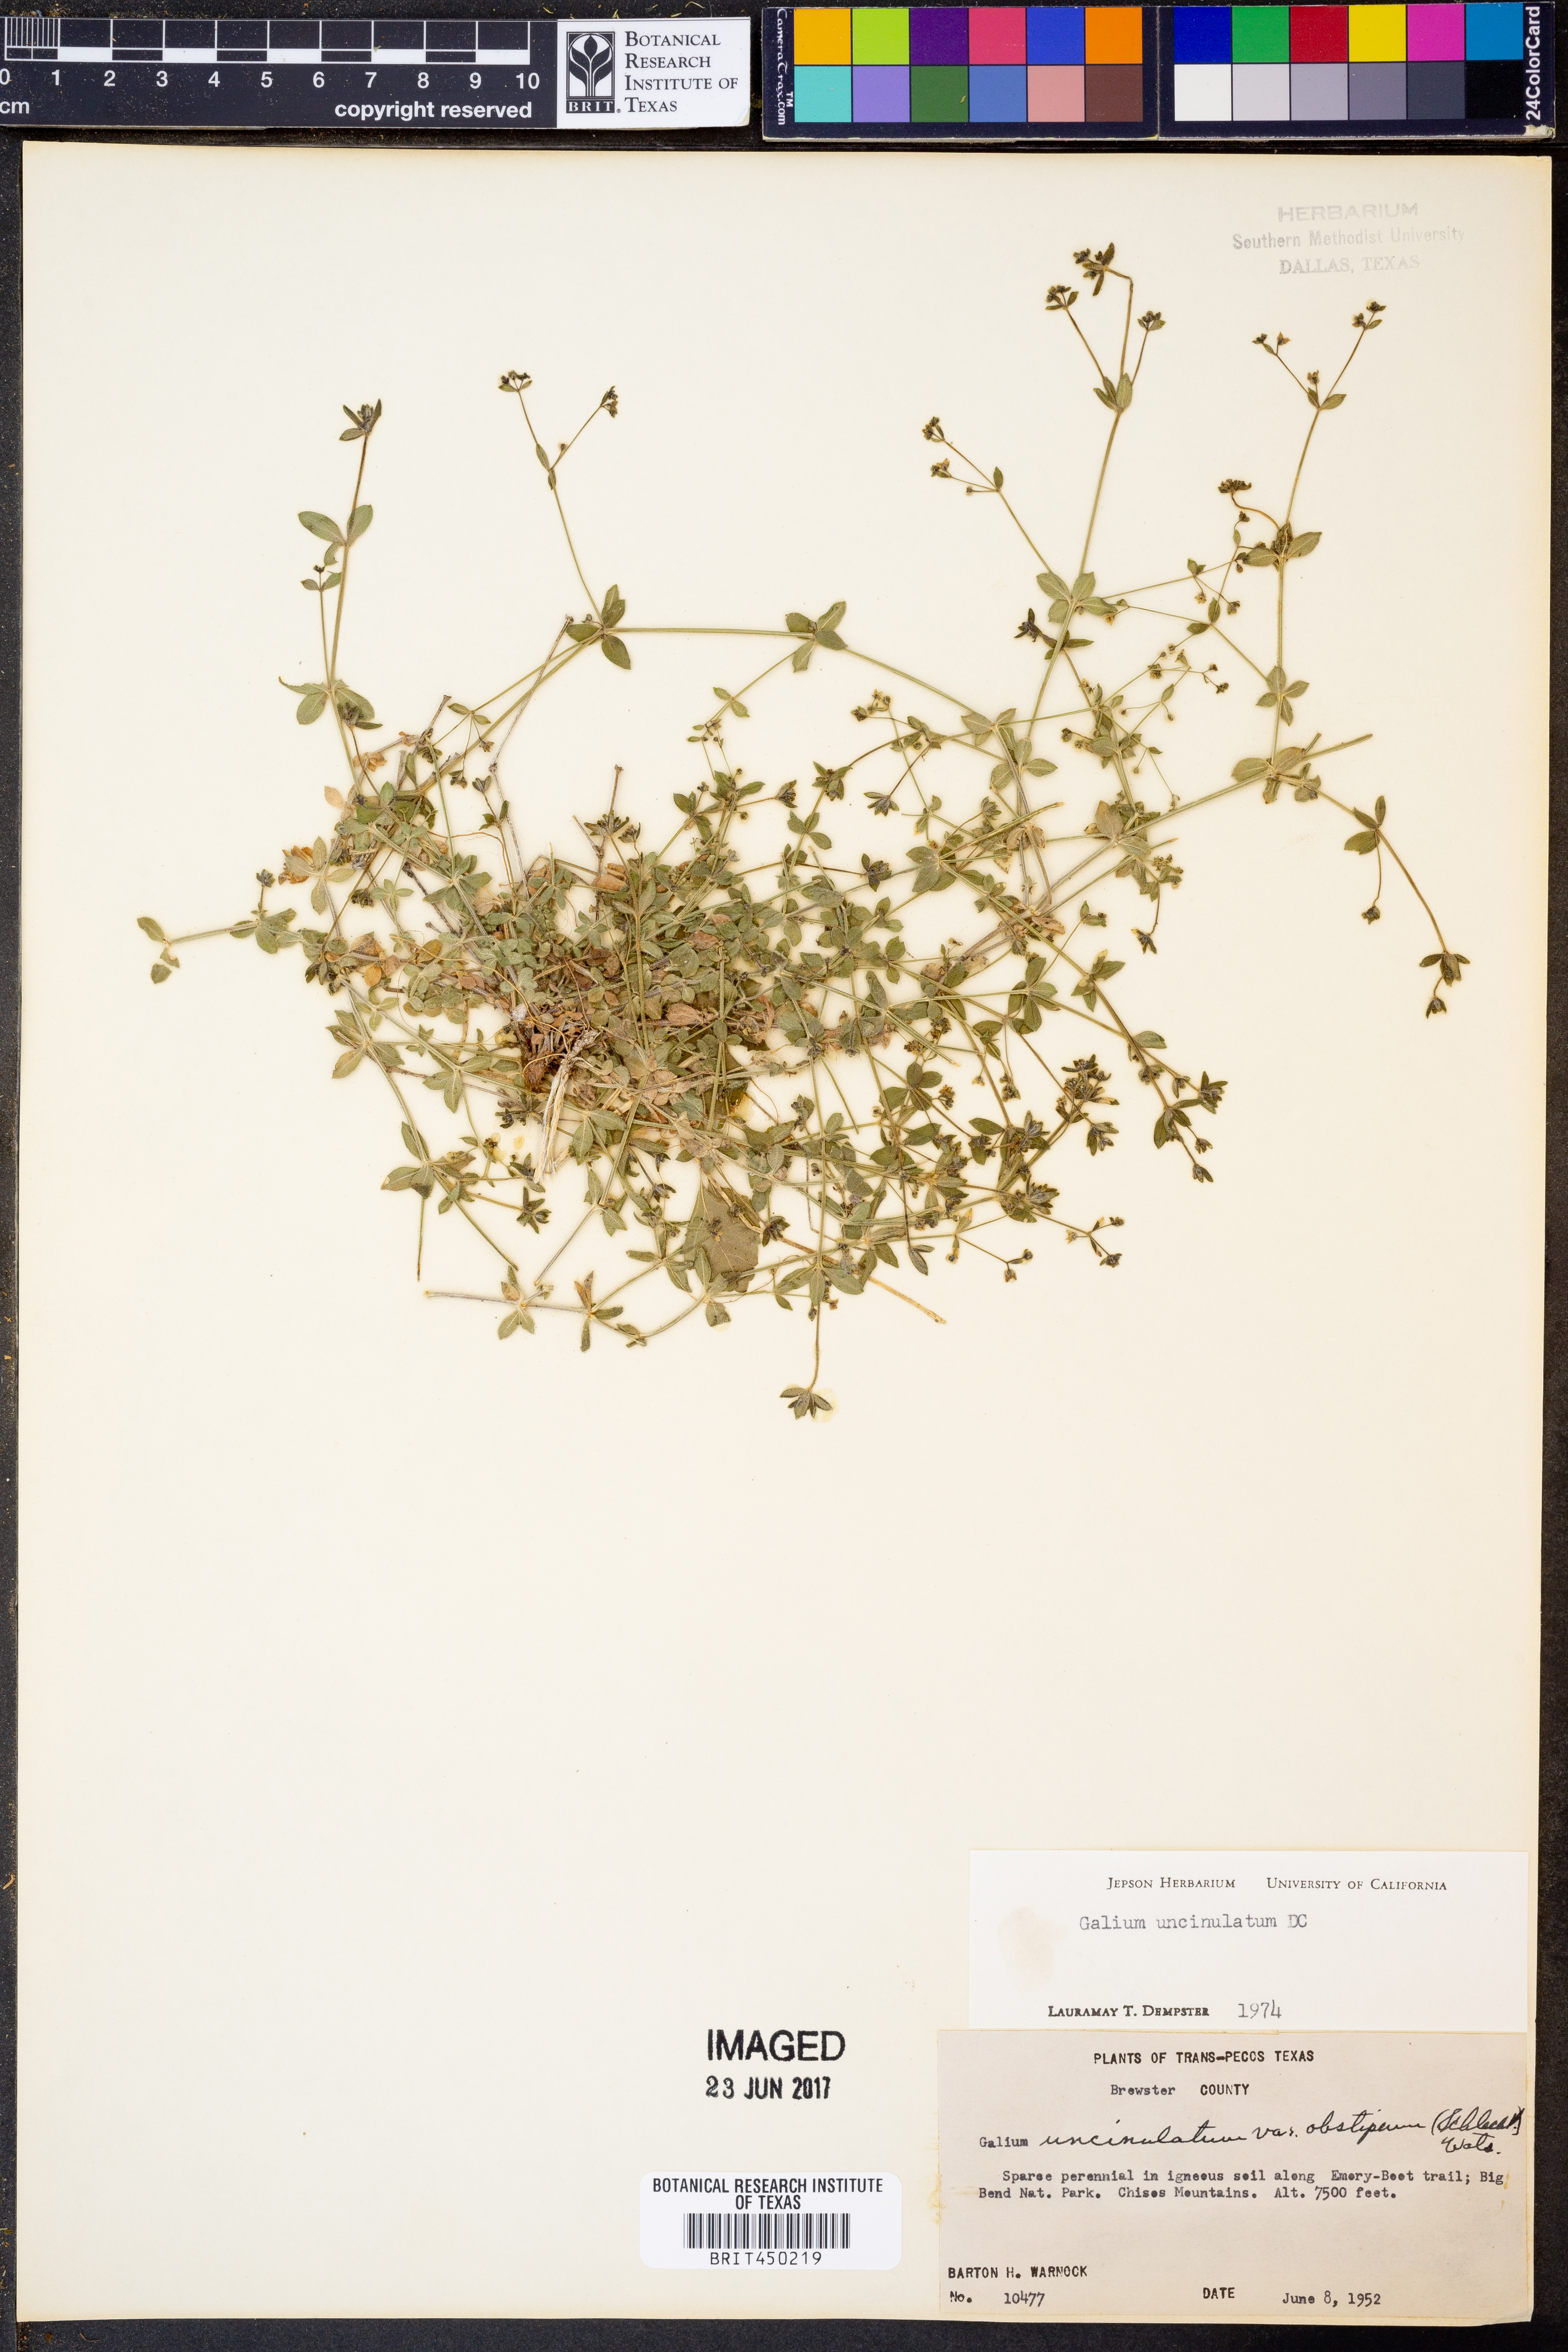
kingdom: Plantae
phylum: Tracheophyta
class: Magnoliopsida
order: Gentianales
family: Rubiaceae
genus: Galium
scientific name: Galium uncinulatum
